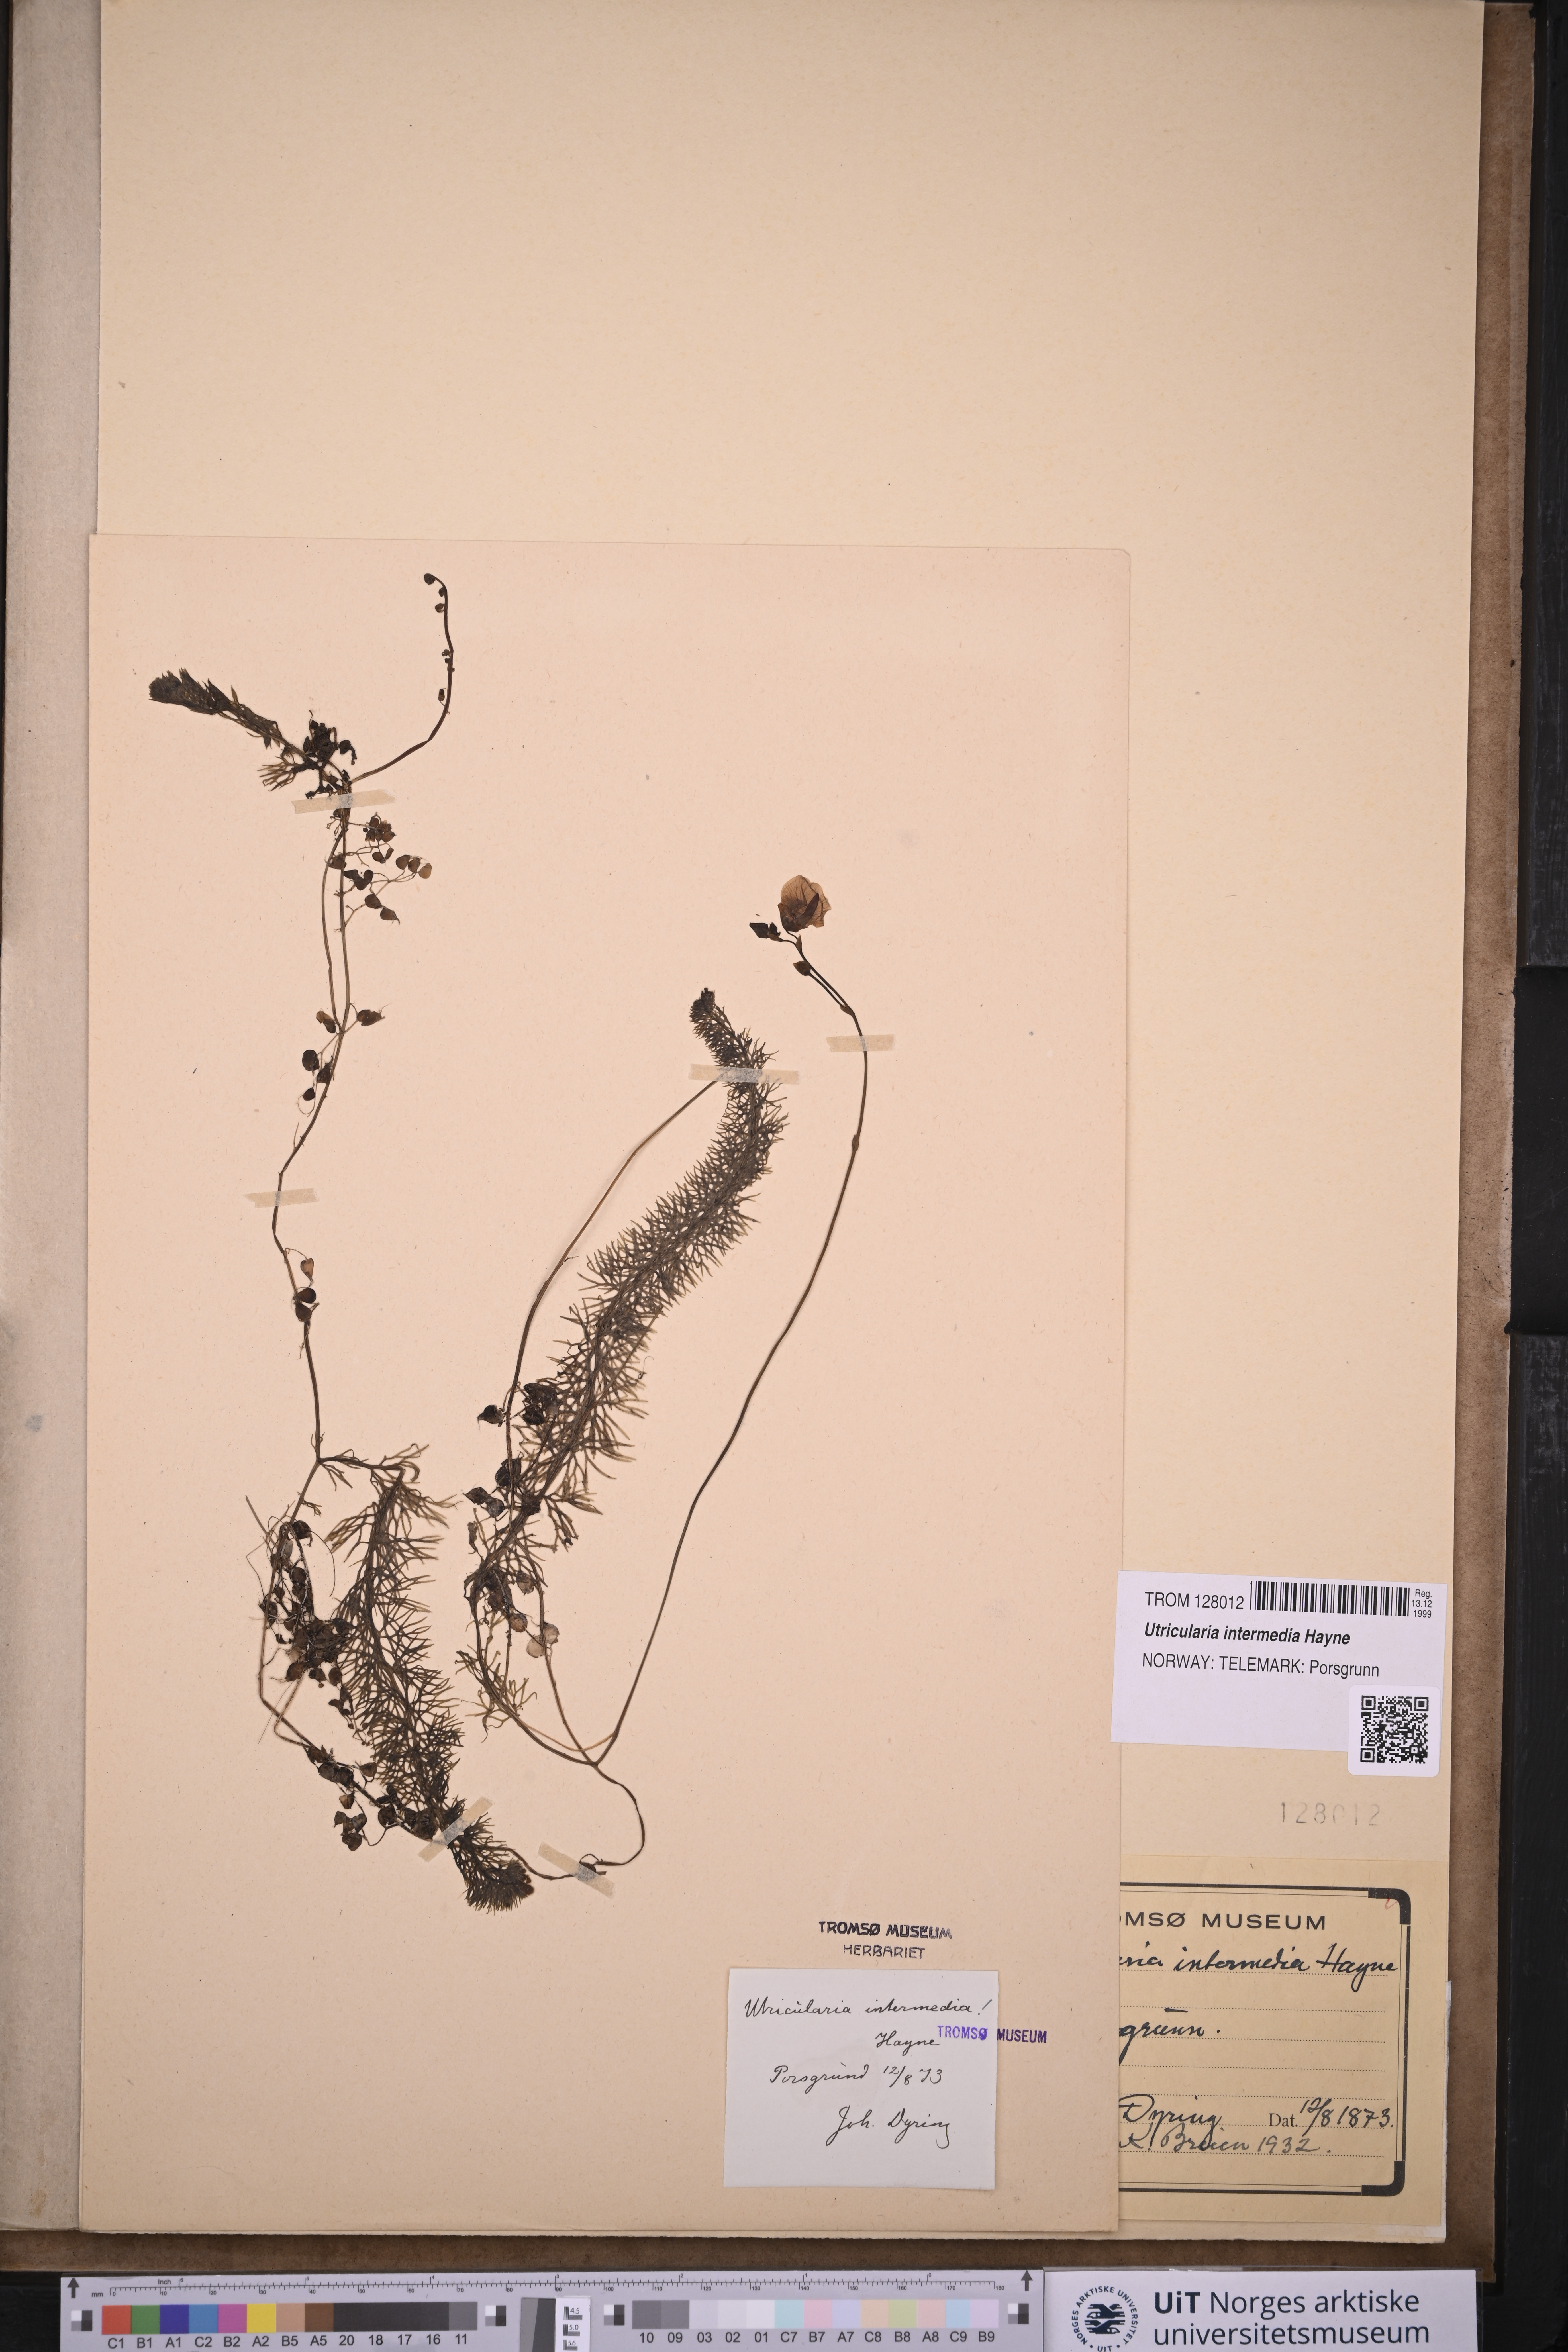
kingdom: Plantae
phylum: Tracheophyta
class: Magnoliopsida
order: Lamiales
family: Lentibulariaceae
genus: Utricularia
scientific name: Utricularia intermedia
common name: Intermediate bladderwort
